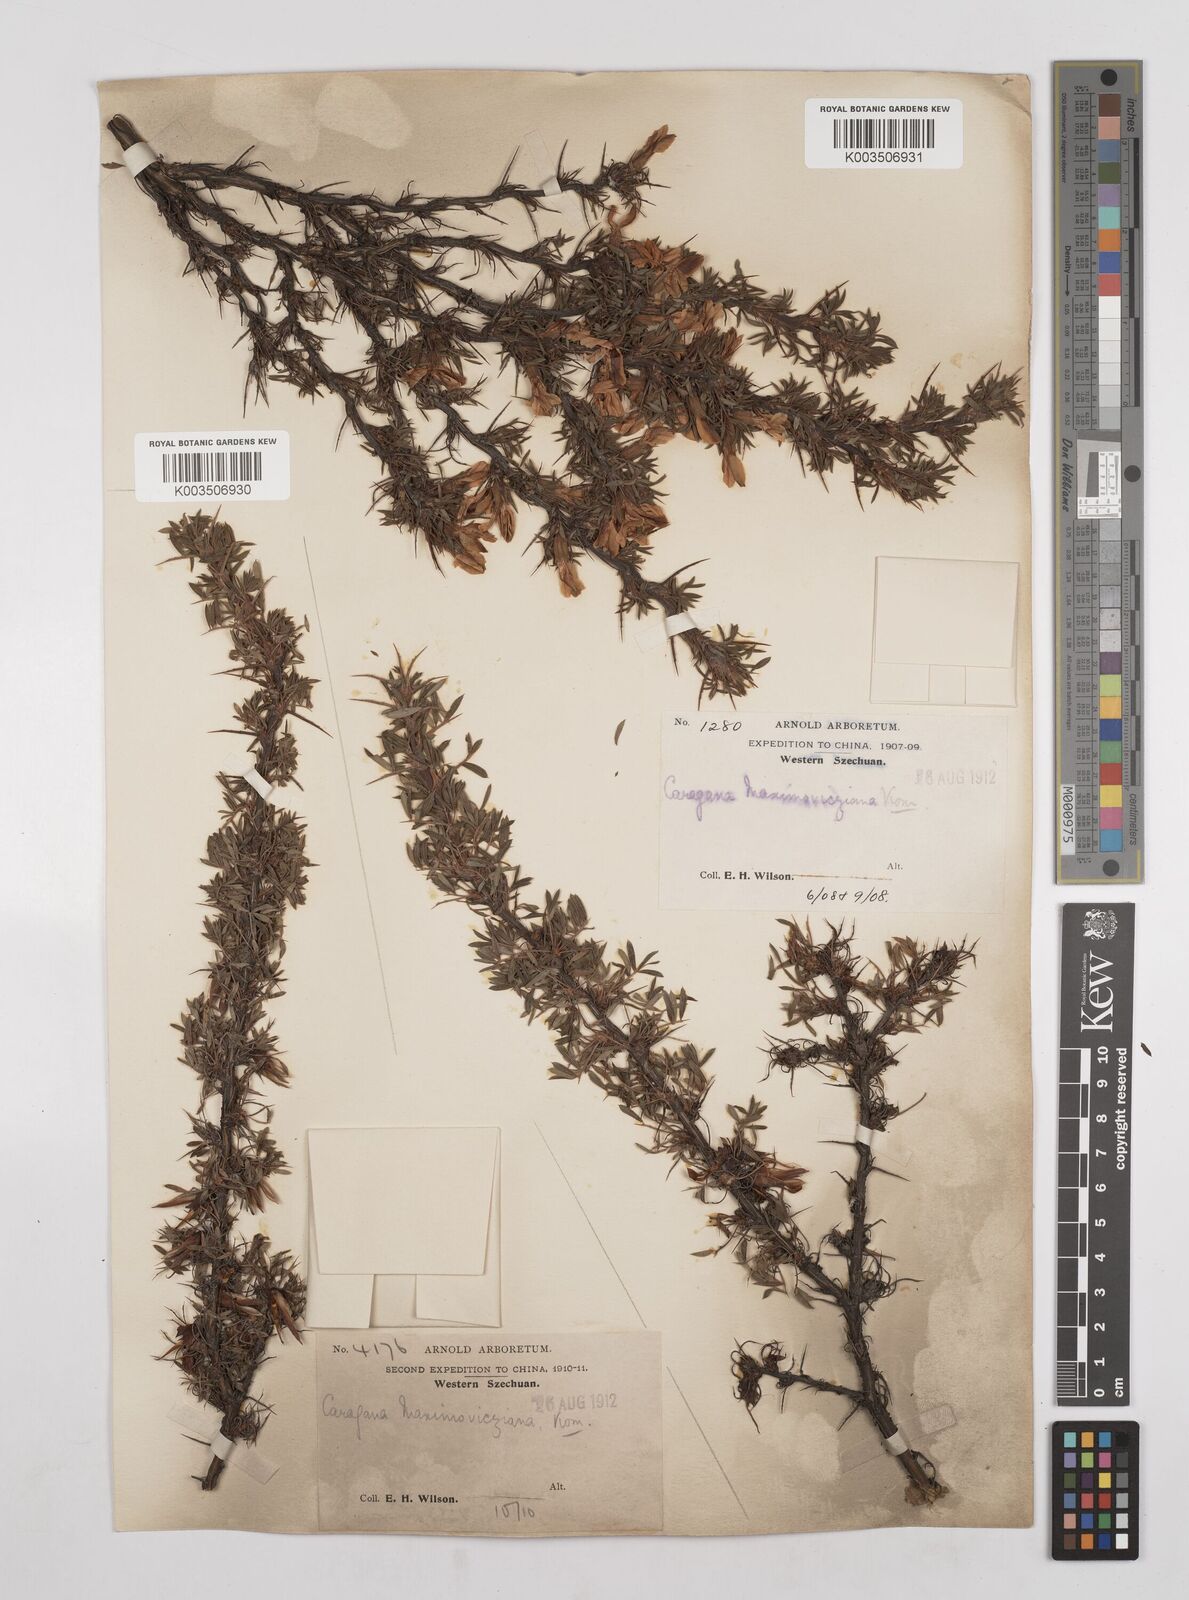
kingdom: Plantae
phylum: Tracheophyta
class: Magnoliopsida
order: Fabales
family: Fabaceae
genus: Caragana
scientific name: Caragana erinacea
